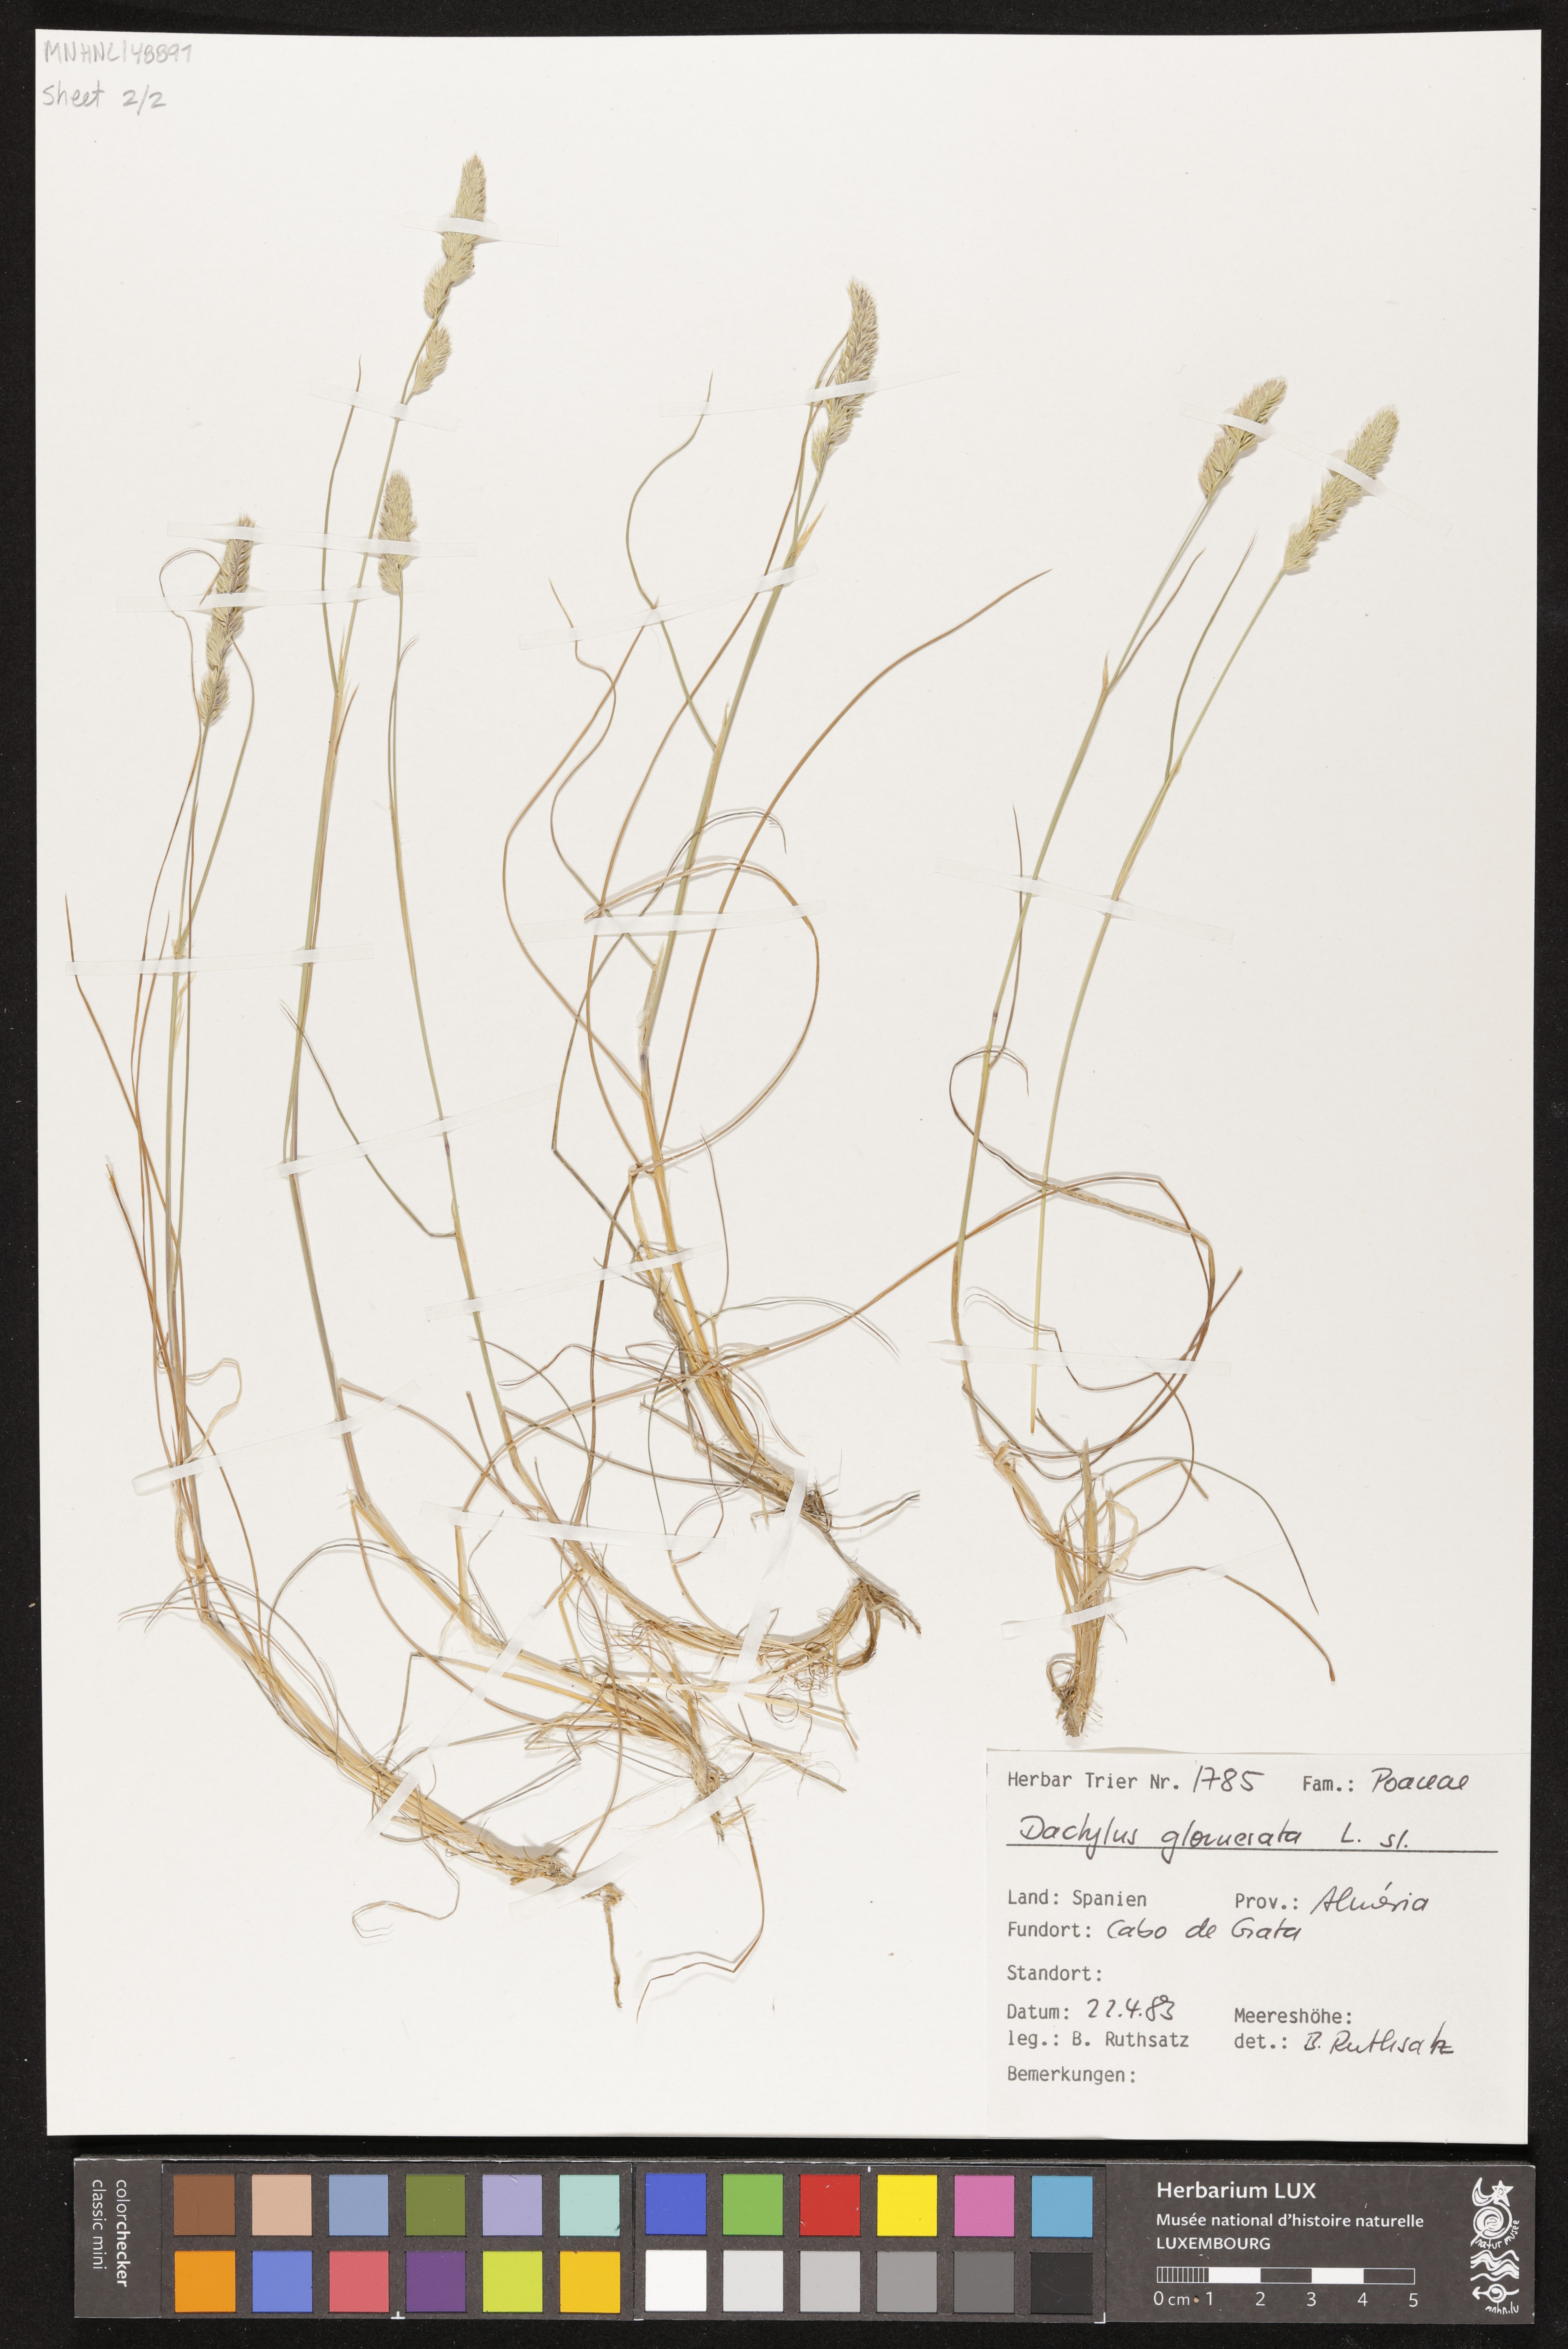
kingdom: Plantae
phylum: Tracheophyta
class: Liliopsida
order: Poales
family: Poaceae
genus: Dactylis
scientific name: Dactylis glomerata
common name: Orchardgrass
